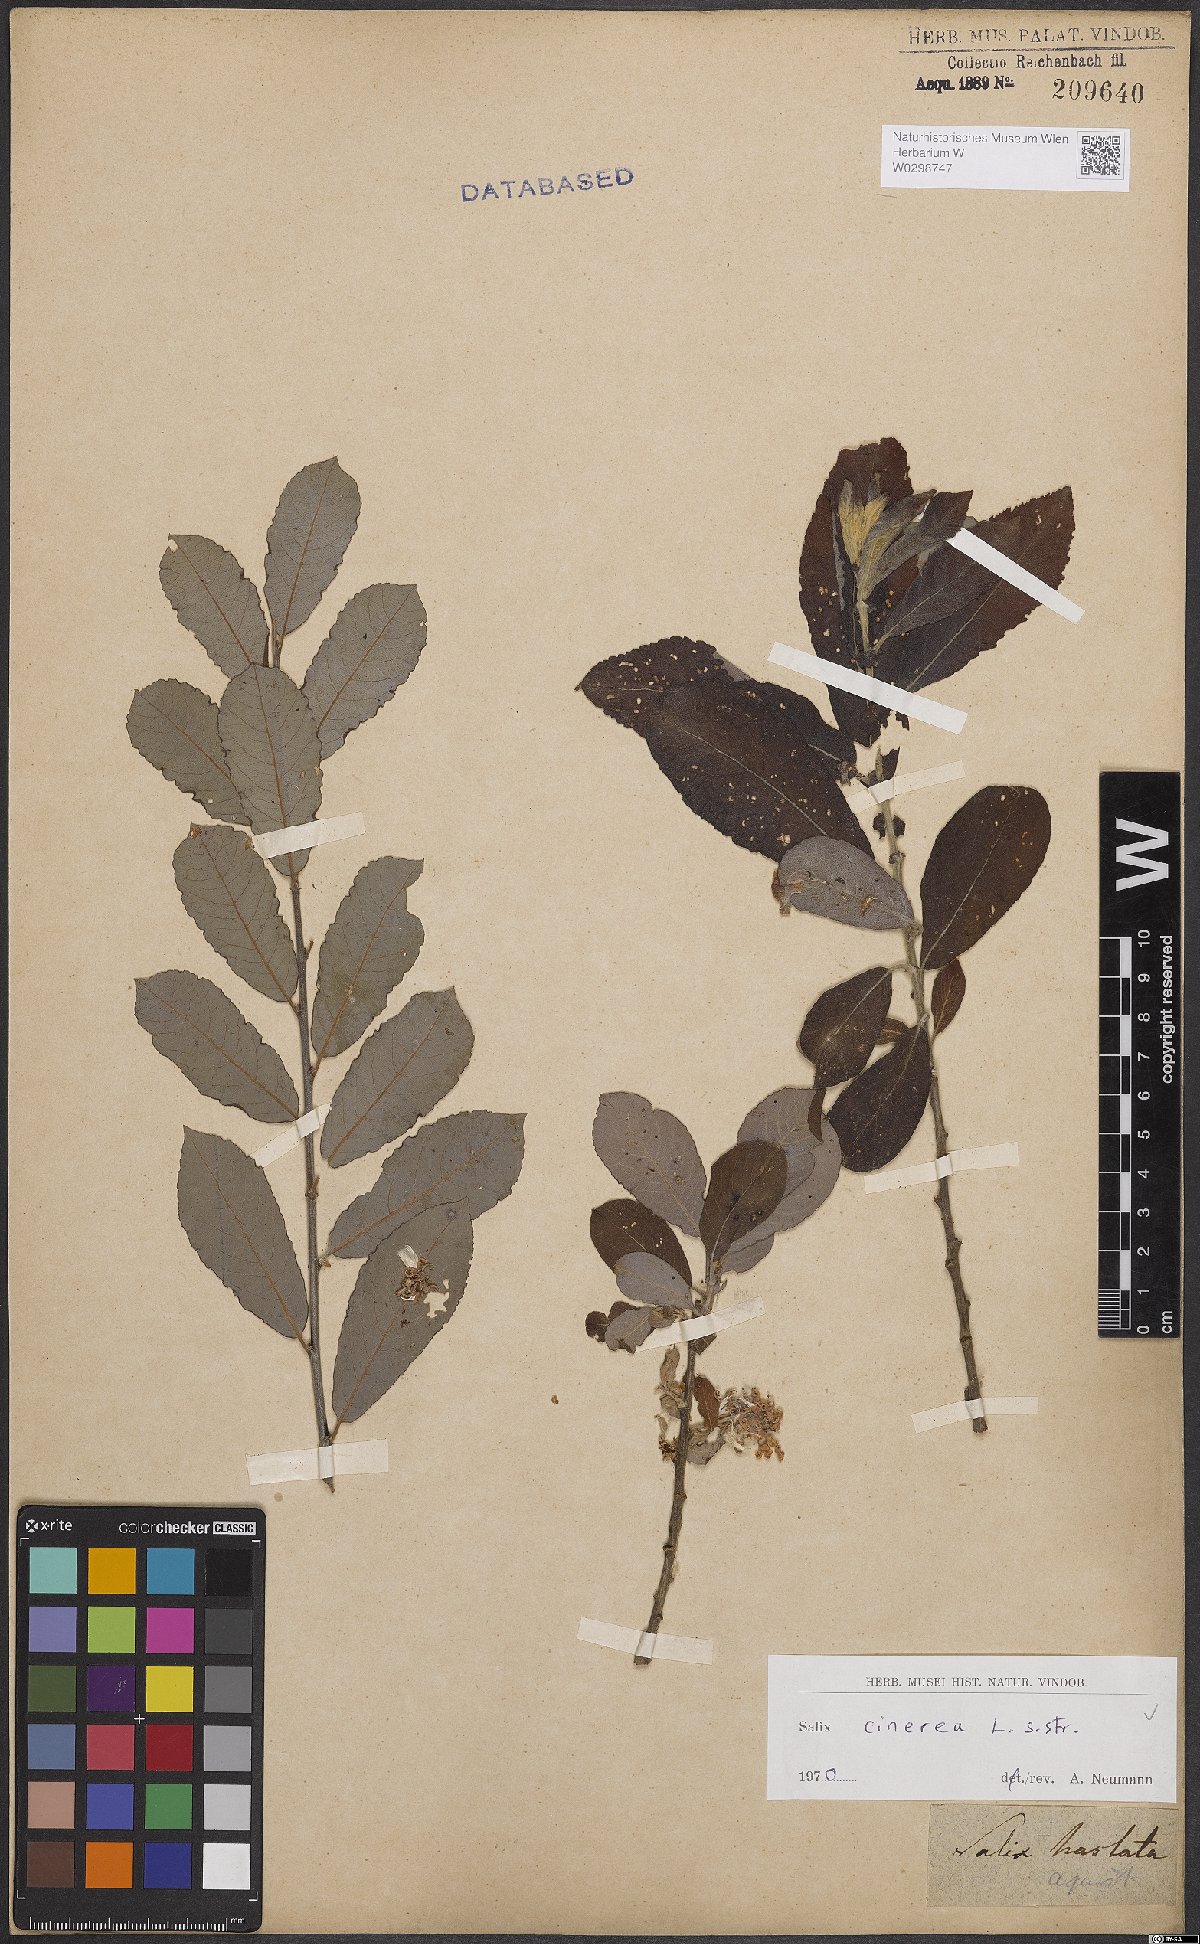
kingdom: Plantae
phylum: Tracheophyta
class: Magnoliopsida
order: Malpighiales
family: Salicaceae
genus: Salix
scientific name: Salix cinerea
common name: Common sallow
